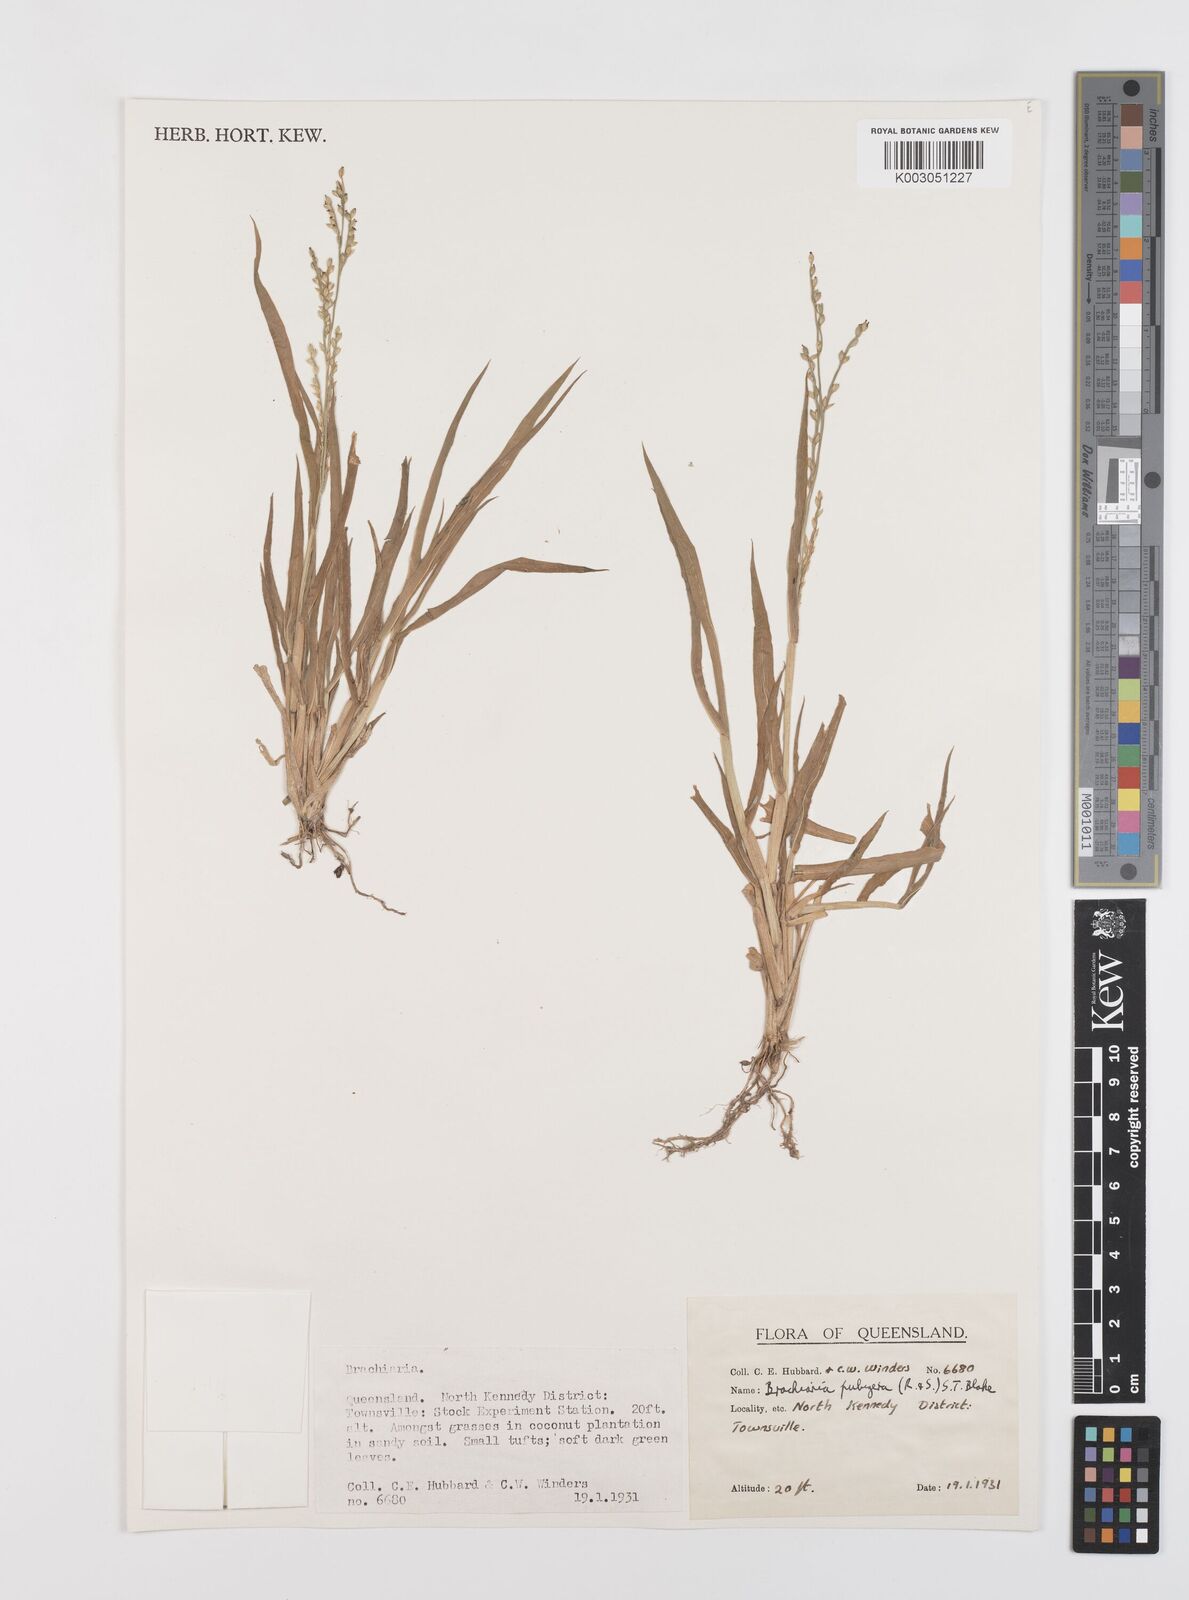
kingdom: Plantae
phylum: Tracheophyta
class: Liliopsida
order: Poales
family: Poaceae
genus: Urochloa
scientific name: Urochloa praetervisa
